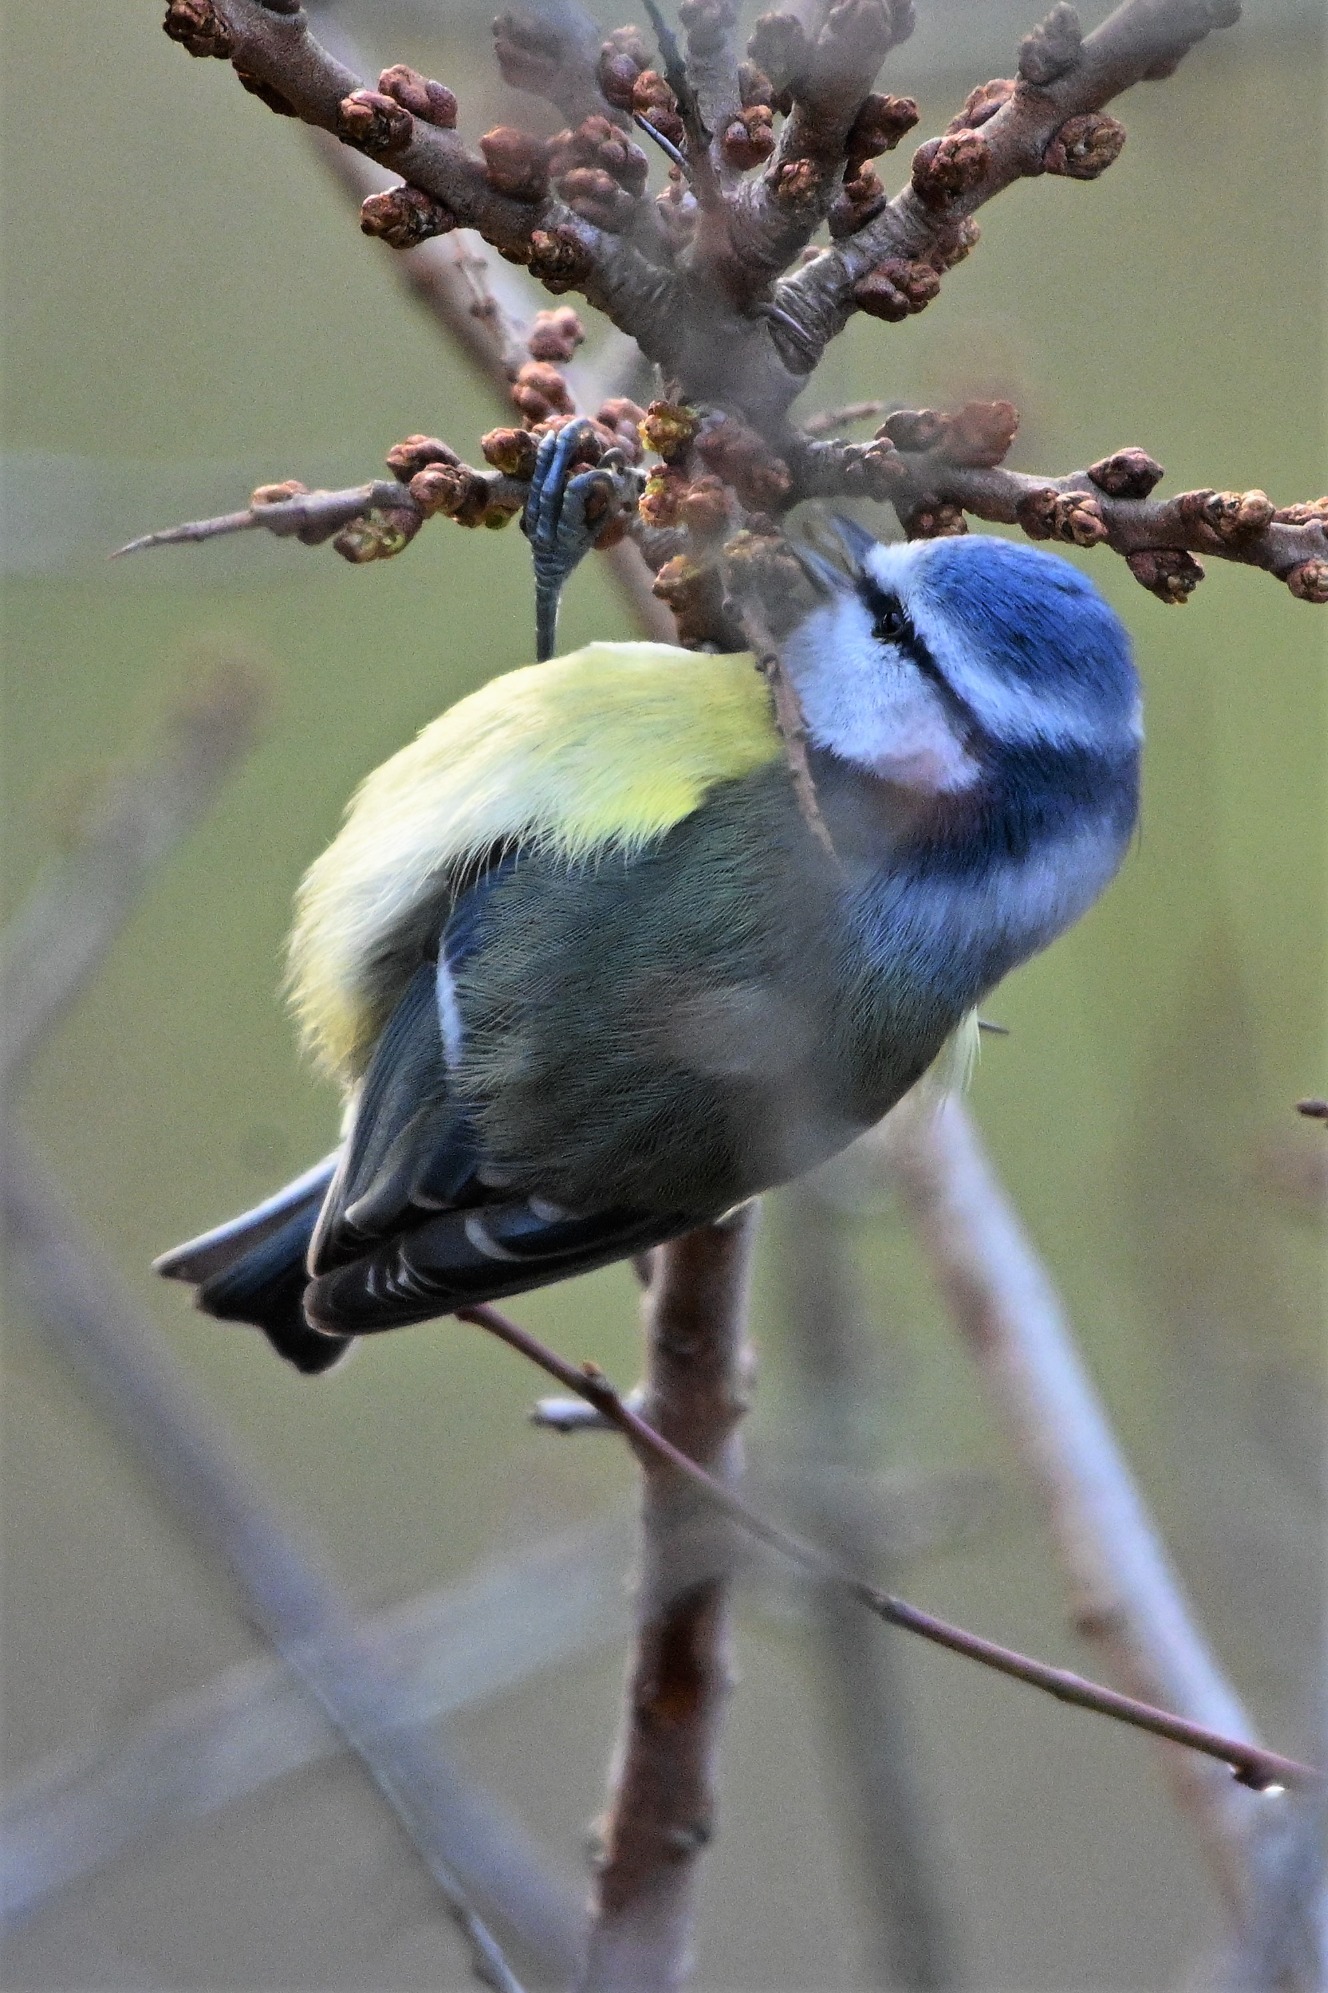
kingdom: Animalia
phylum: Chordata
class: Aves
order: Passeriformes
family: Paridae
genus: Cyanistes
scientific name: Cyanistes caeruleus
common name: Blåmejse
